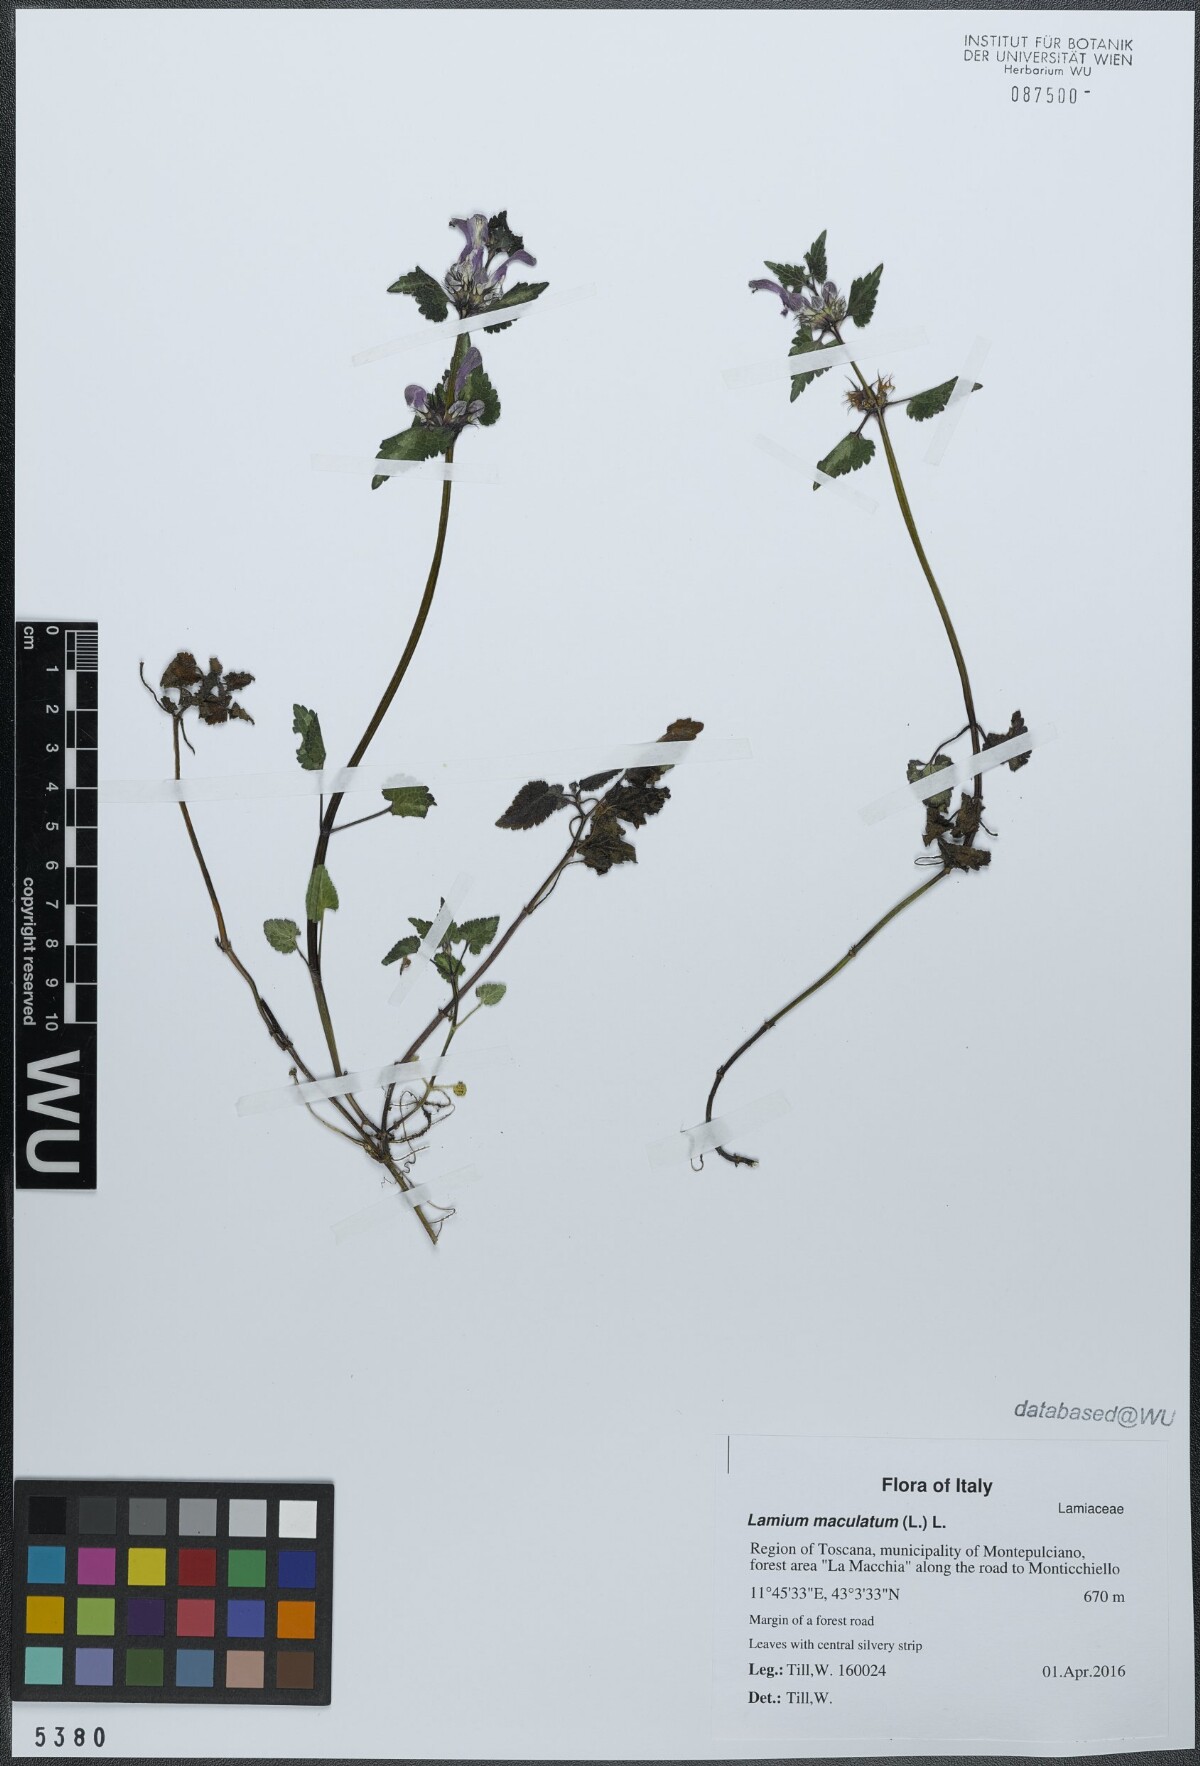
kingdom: Plantae
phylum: Tracheophyta
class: Magnoliopsida
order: Lamiales
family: Lamiaceae
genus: Lamium
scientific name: Lamium maculatum
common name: Spotted dead-nettle
